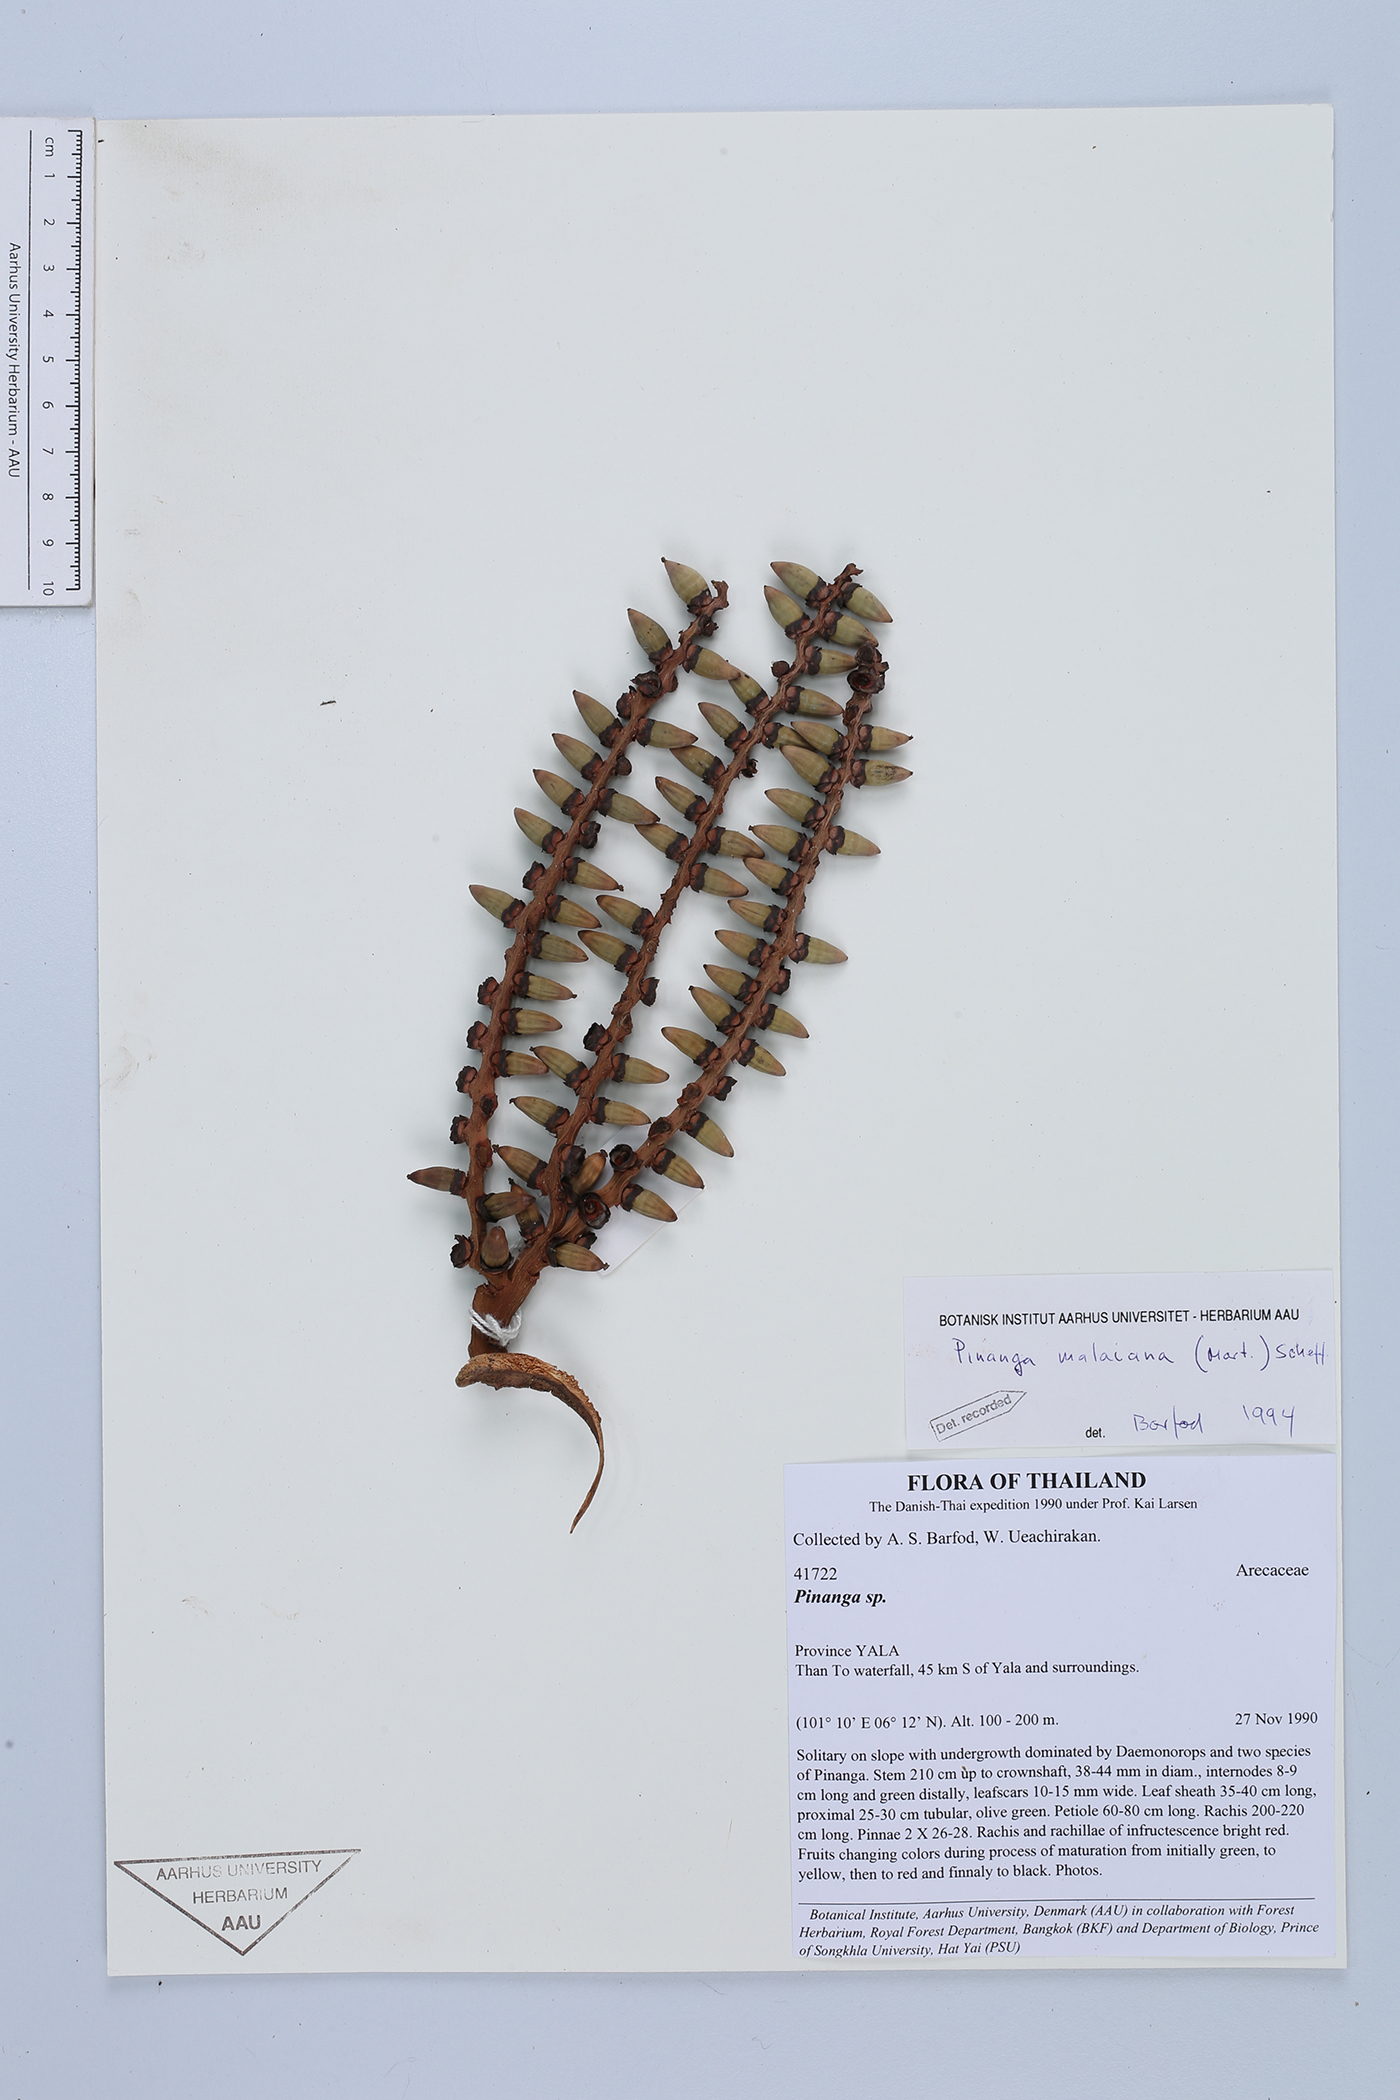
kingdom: Plantae
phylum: Tracheophyta
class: Liliopsida
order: Arecales
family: Arecaceae
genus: Pinanga
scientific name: Pinanga malaiana
